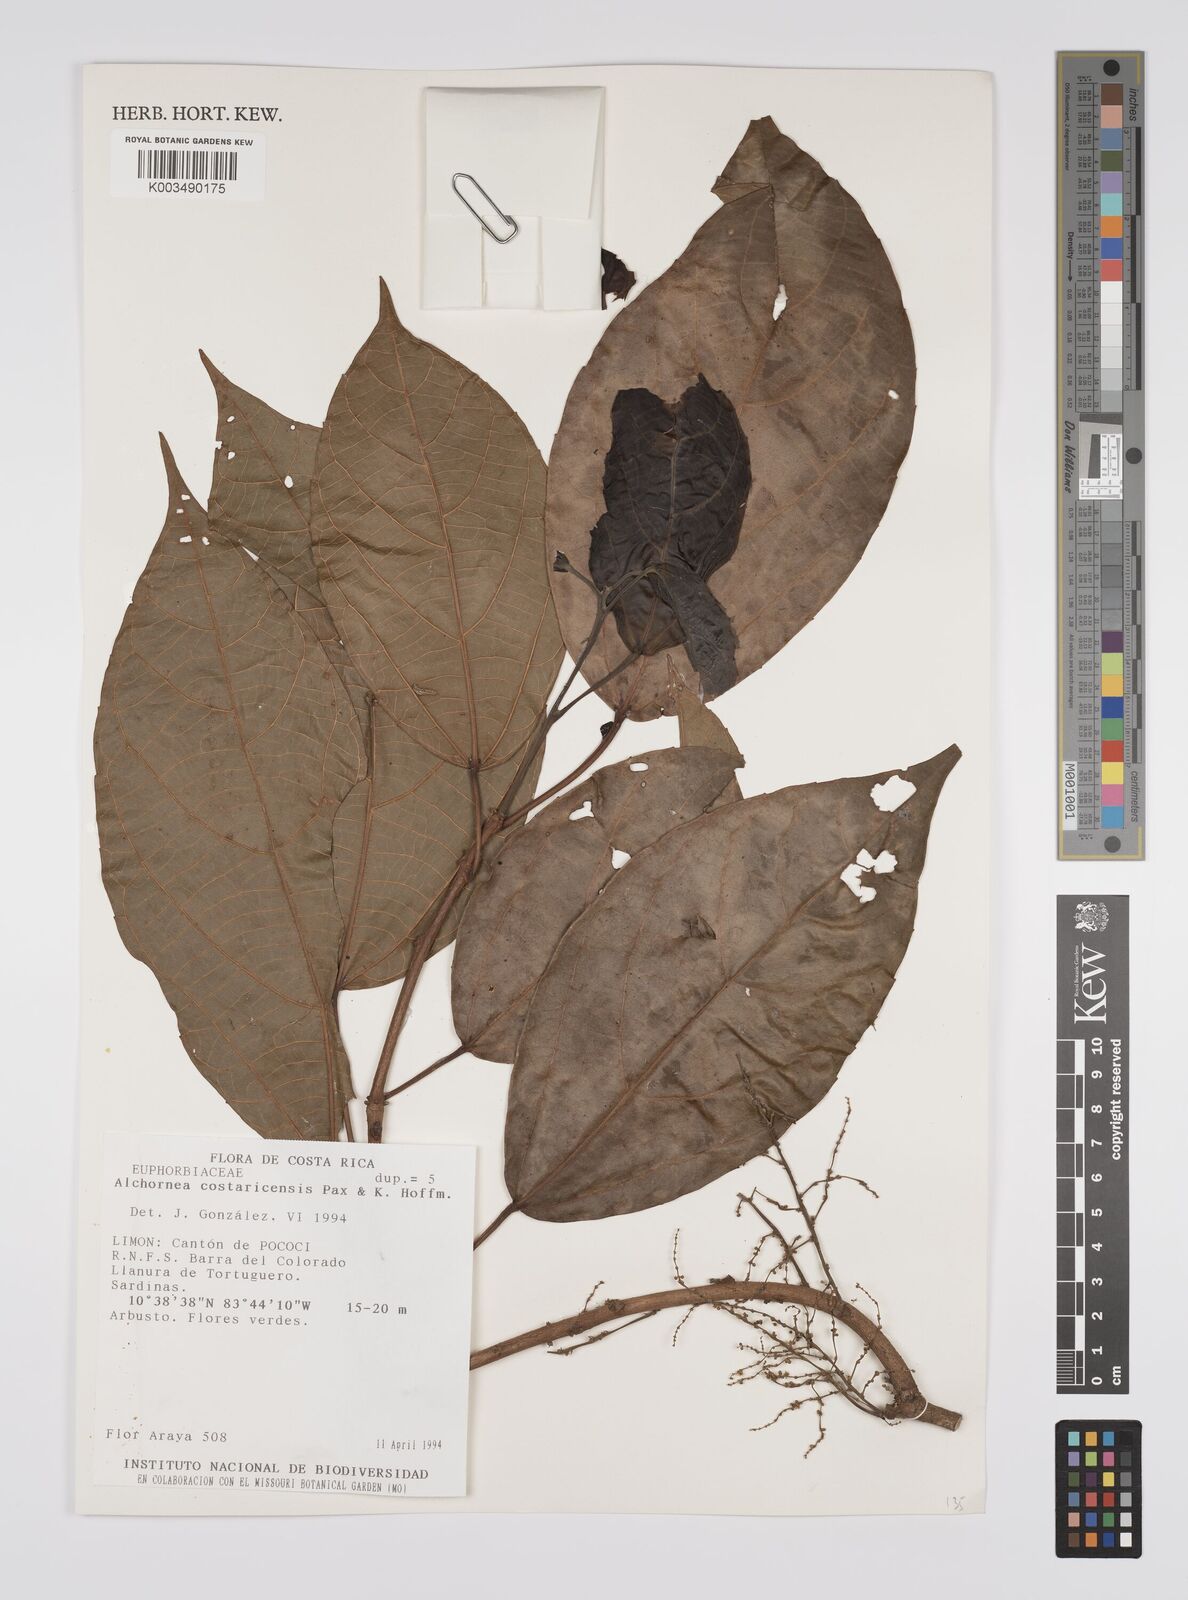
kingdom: Plantae
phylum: Tracheophyta
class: Magnoliopsida
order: Malpighiales
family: Euphorbiaceae
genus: Alchornea
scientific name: Alchornea costaricensis
